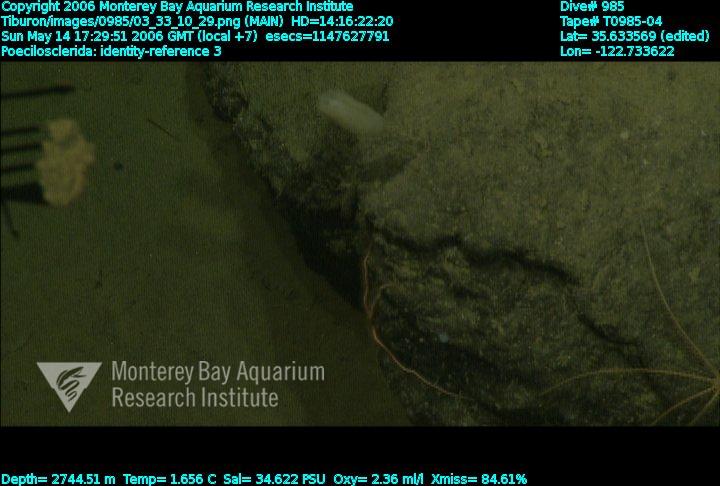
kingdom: Animalia
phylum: Porifera
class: Demospongiae
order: Poecilosclerida
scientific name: Poecilosclerida
